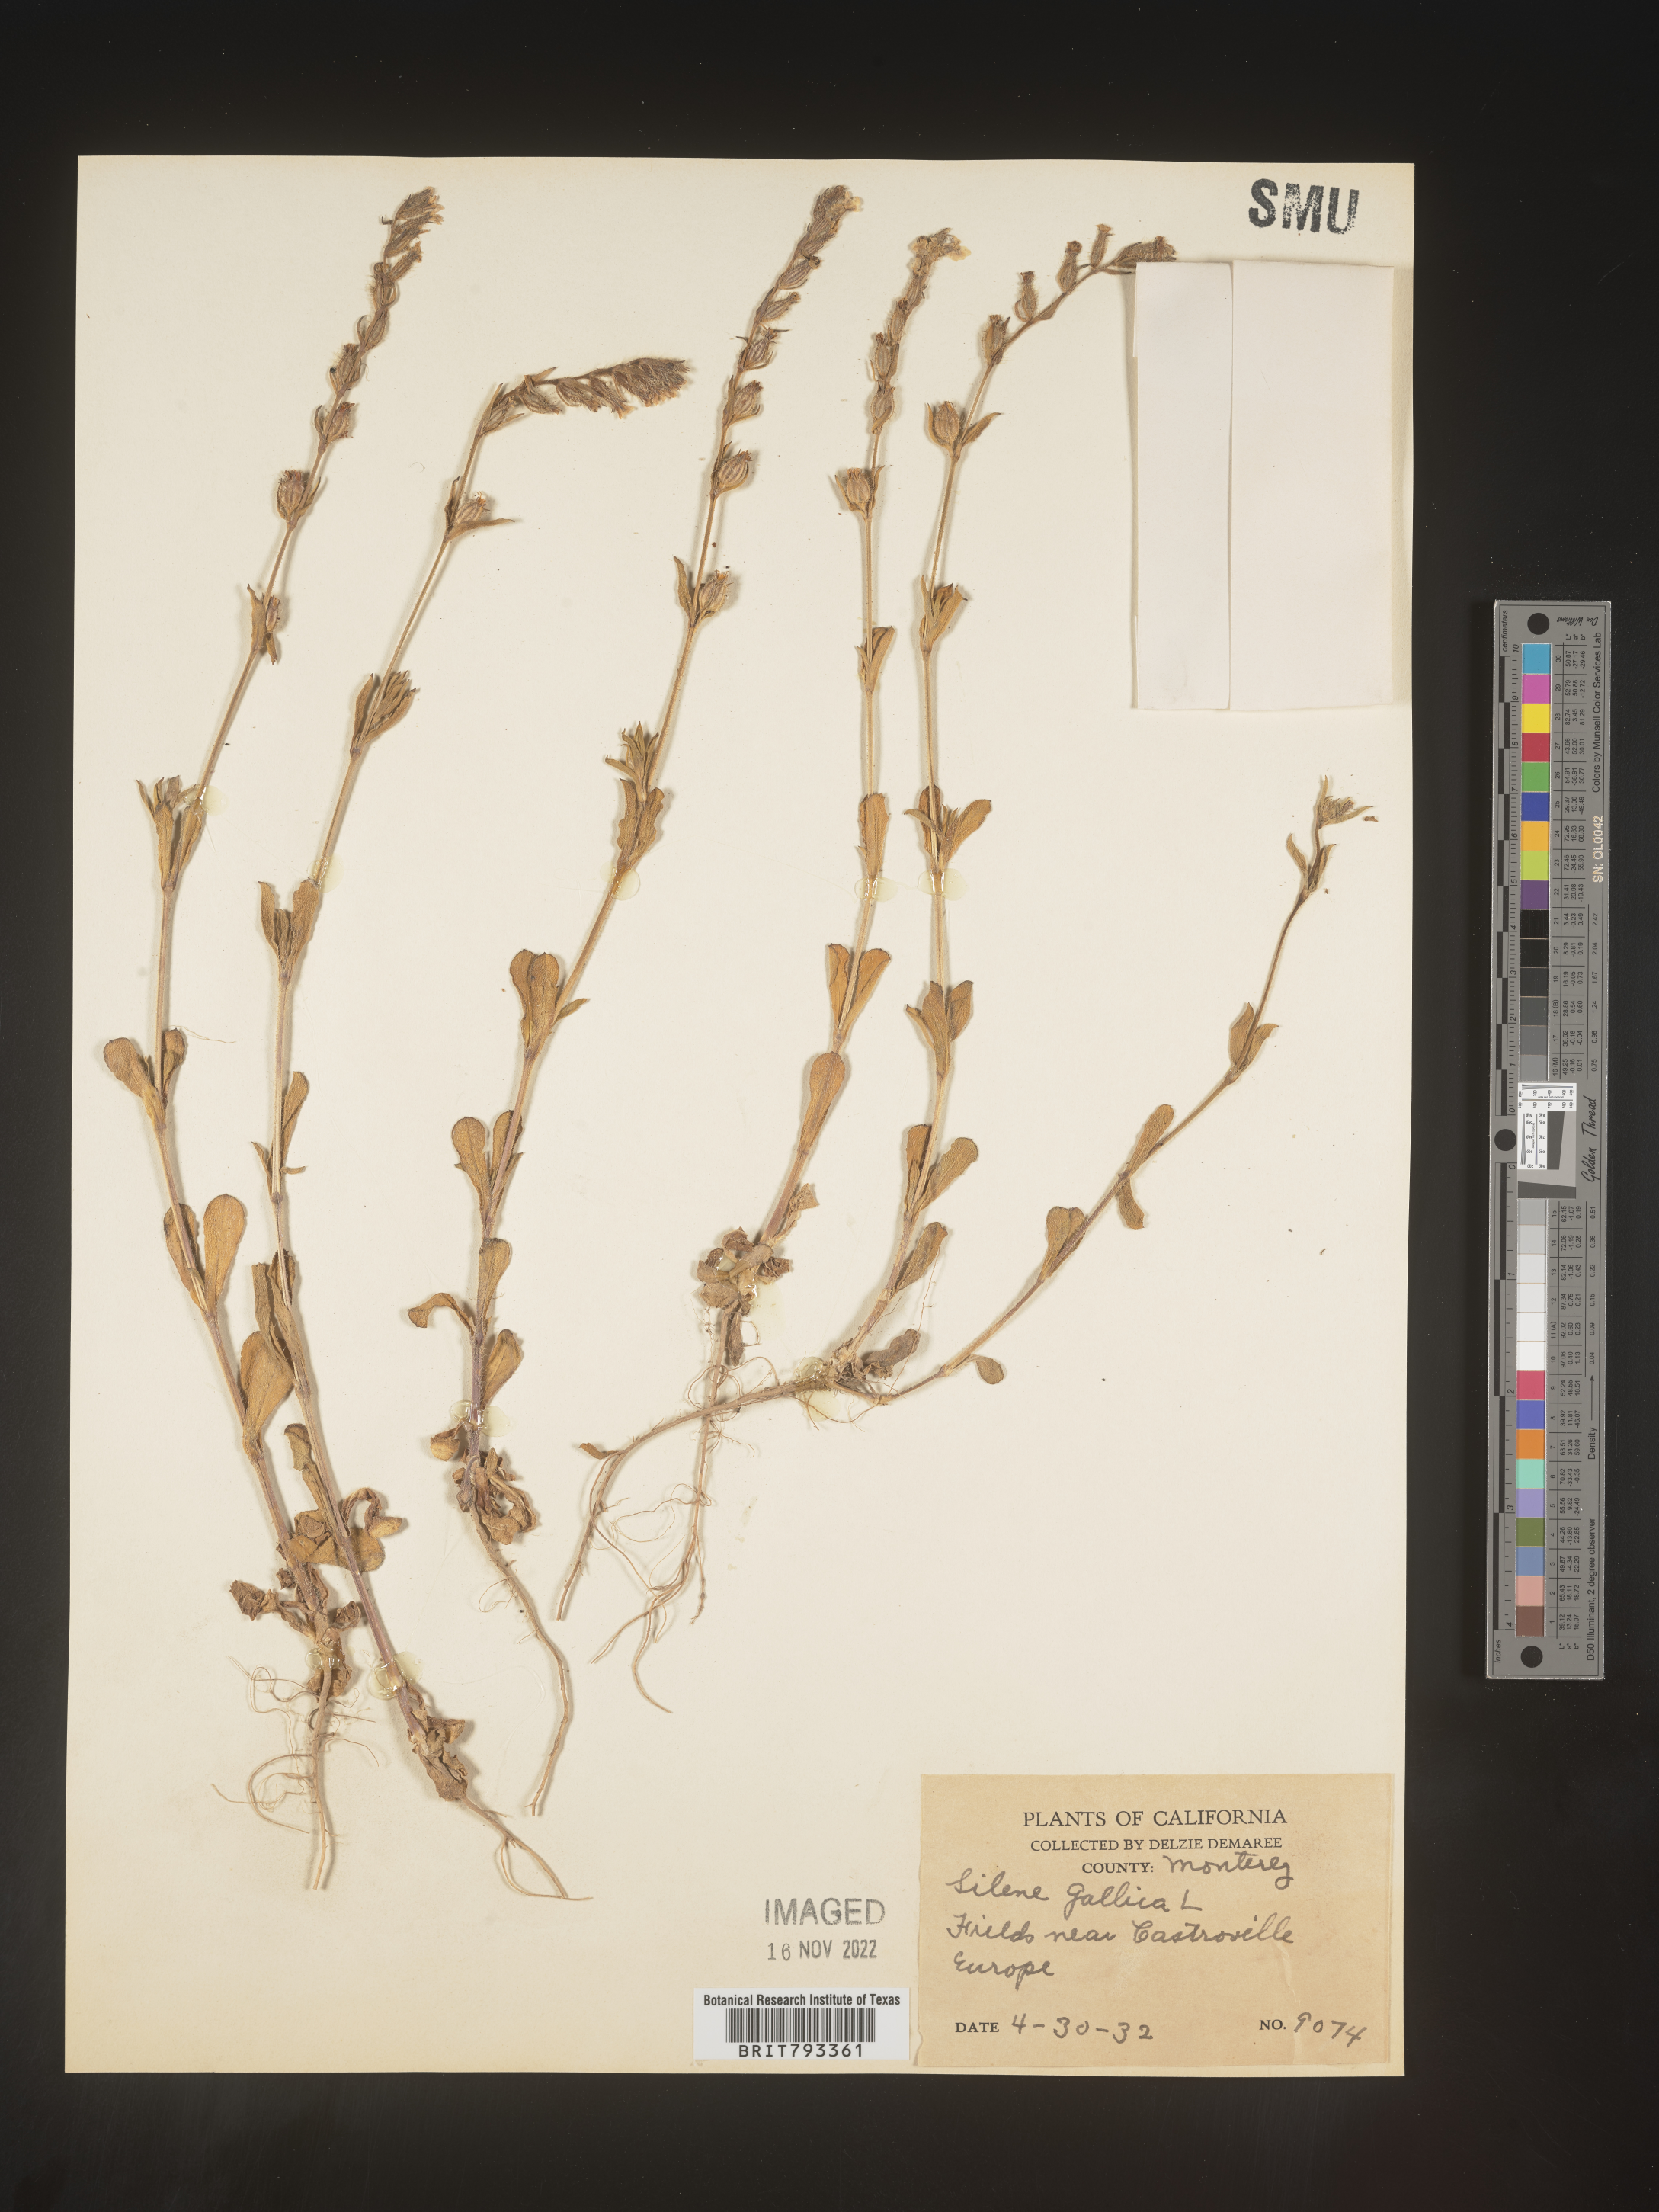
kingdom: Plantae
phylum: Tracheophyta
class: Magnoliopsida
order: Caryophyllales
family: Caryophyllaceae
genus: Silene
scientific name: Silene gallica
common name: Small-flowered catchfly
